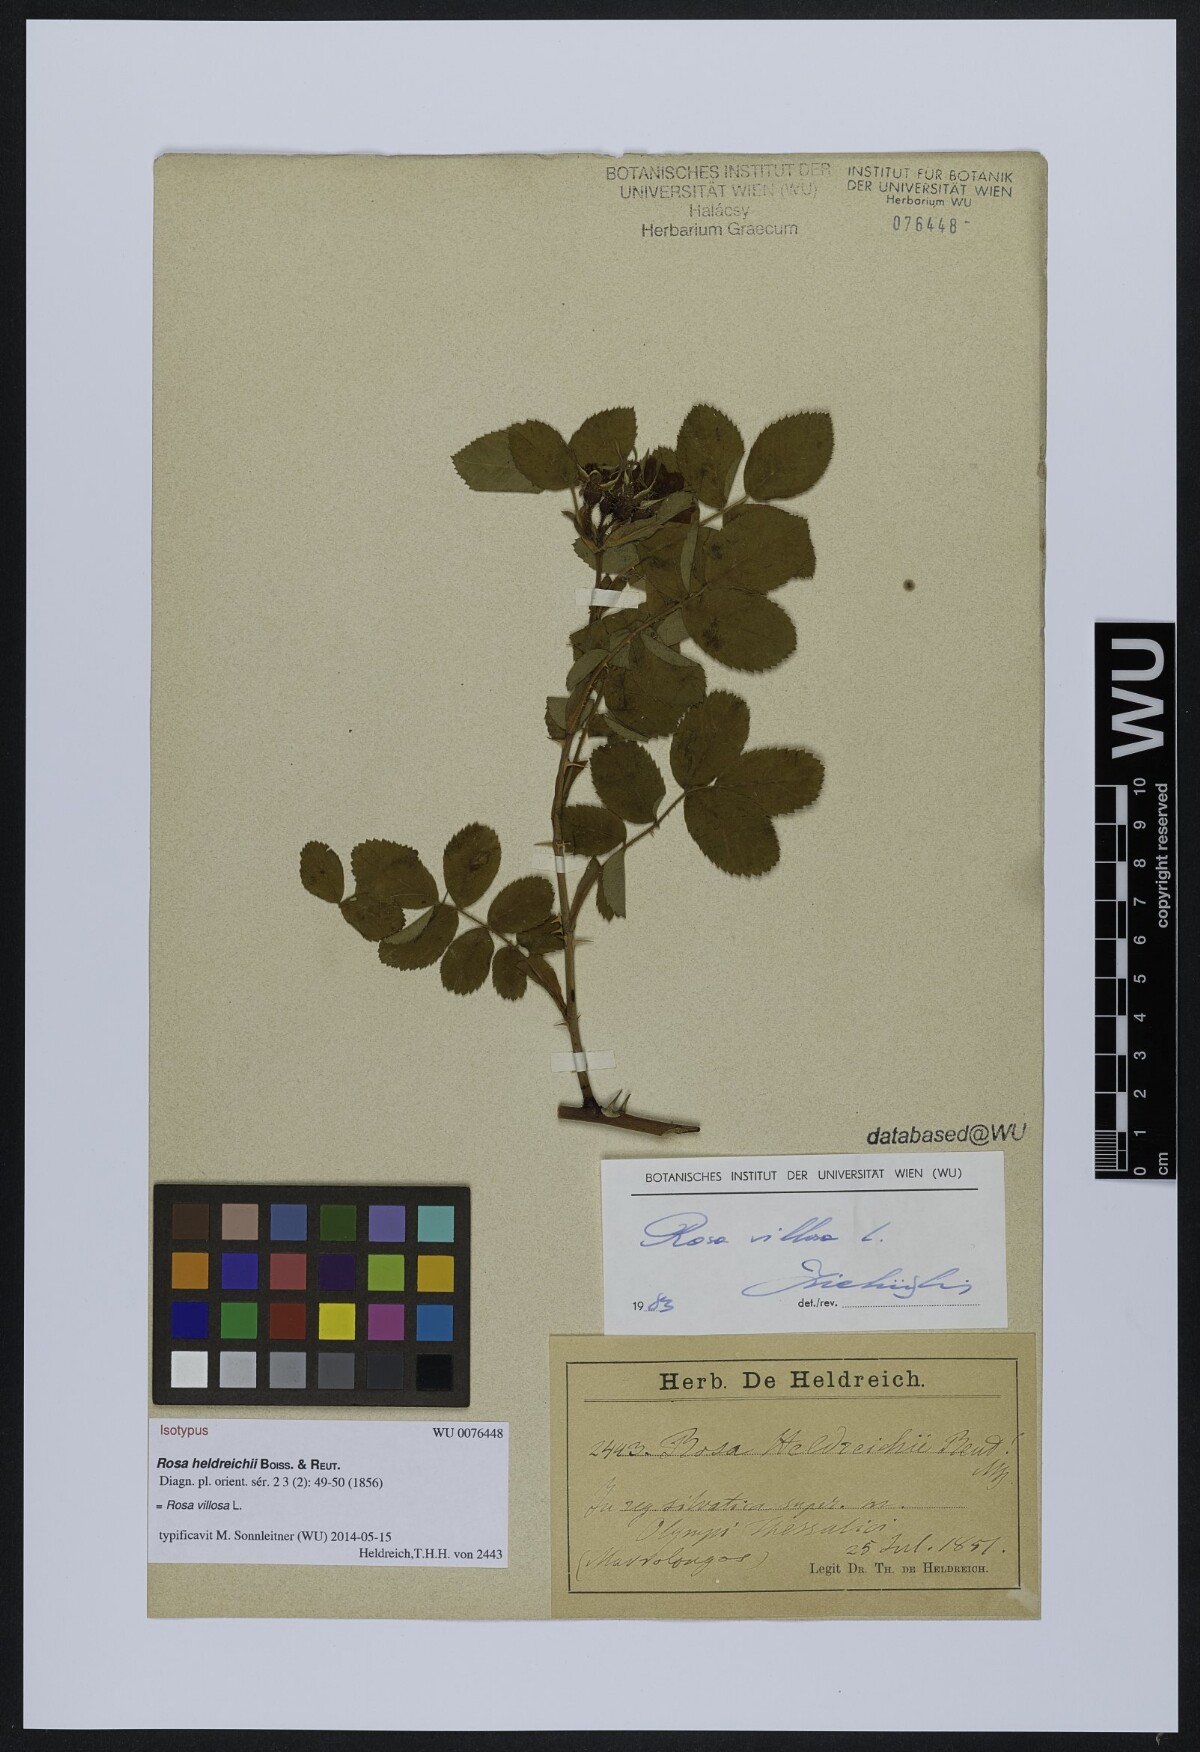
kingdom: Plantae
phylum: Tracheophyta
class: Magnoliopsida
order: Rosales
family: Rosaceae
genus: Rosa
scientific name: Rosa mollis
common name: Rose
